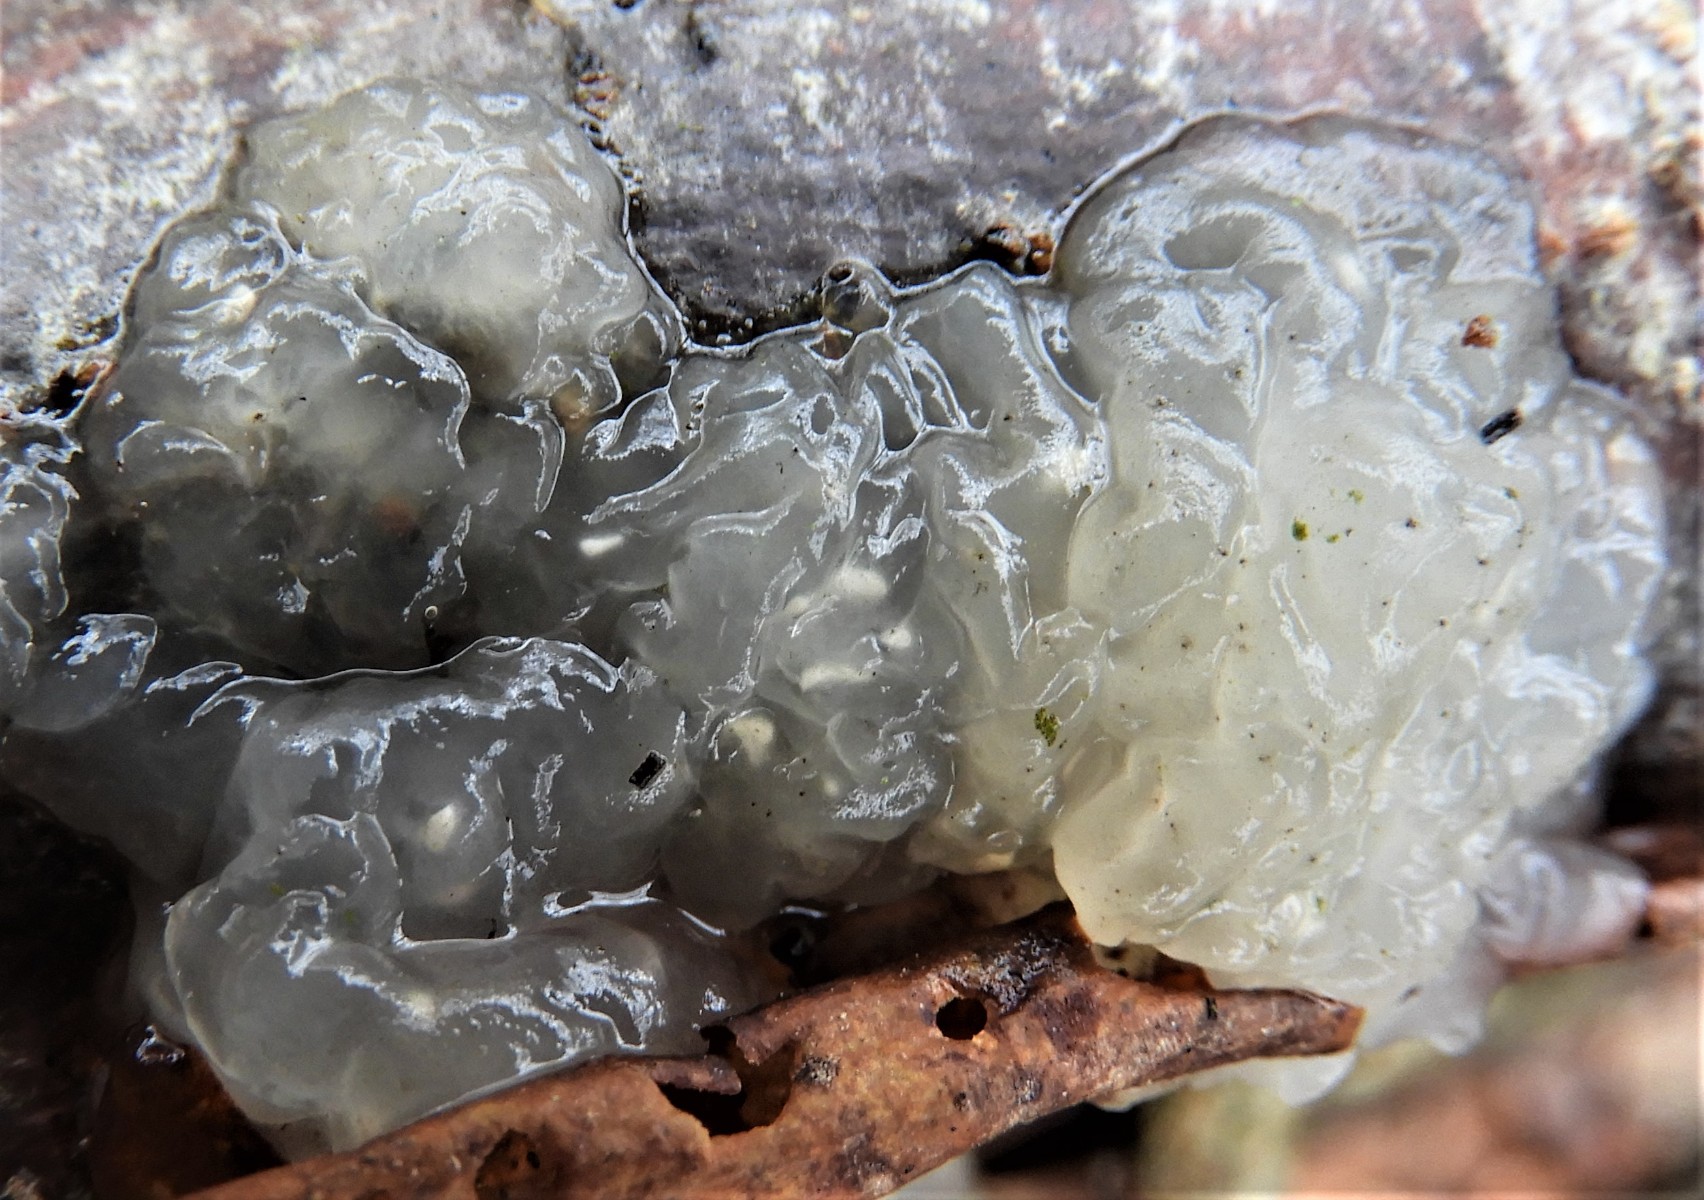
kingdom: Fungi
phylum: Basidiomycota
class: Agaricomycetes
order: Auriculariales
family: Hyaloriaceae
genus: Myxarium
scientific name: Myxarium nucleatum
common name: klar bævretop
